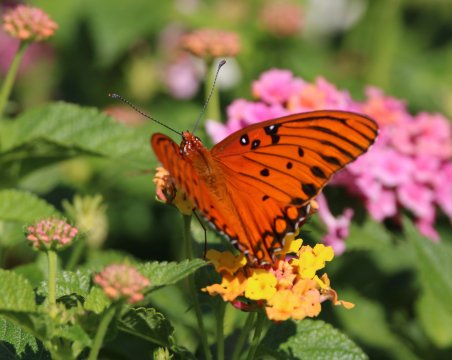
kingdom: Animalia
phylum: Arthropoda
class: Insecta
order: Lepidoptera
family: Nymphalidae
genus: Dione
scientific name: Dione vanillae
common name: Gulf Fritillary
